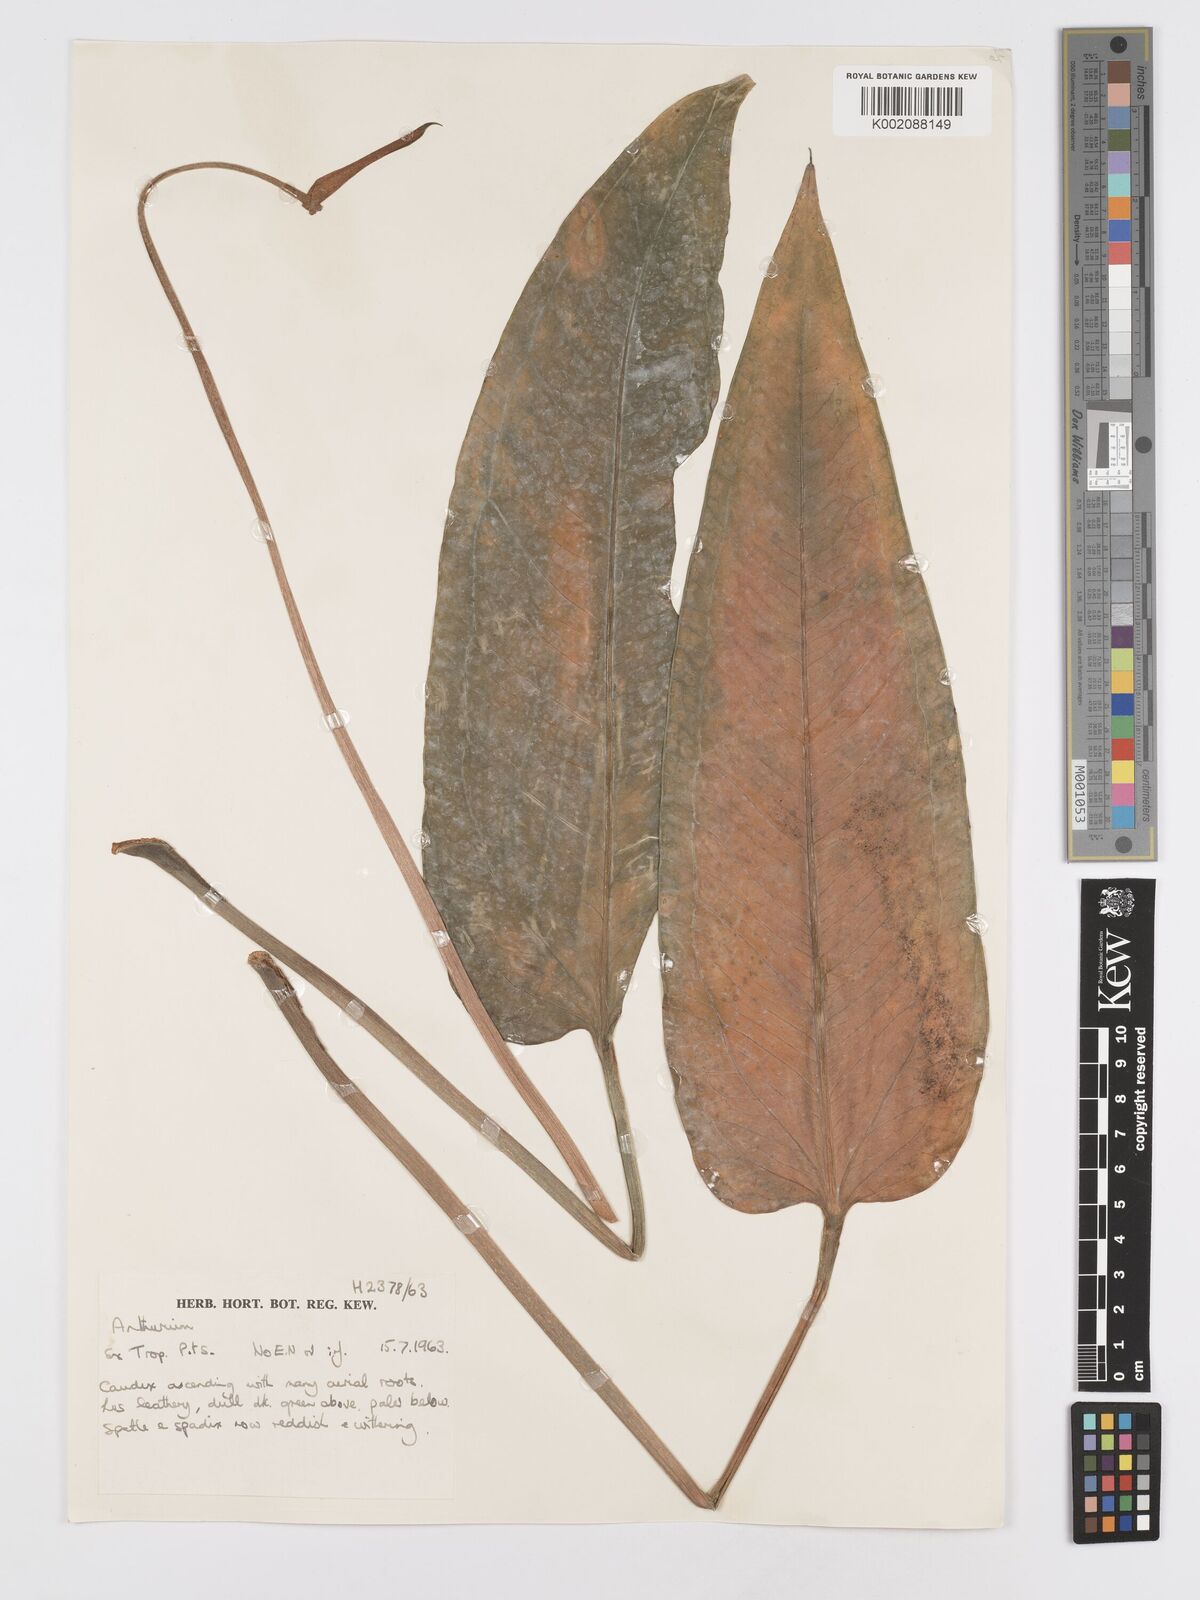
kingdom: Plantae
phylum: Tracheophyta
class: Liliopsida
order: Alismatales
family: Araceae
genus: Anthurium
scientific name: Anthurium
